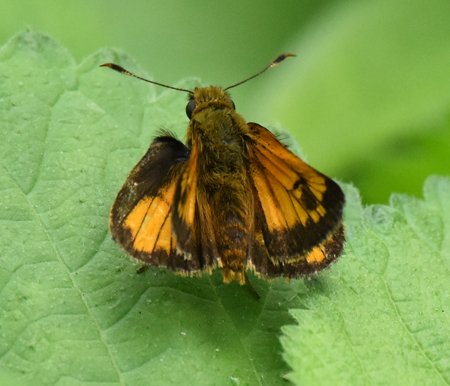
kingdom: Animalia
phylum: Arthropoda
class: Insecta
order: Lepidoptera
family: Hesperiidae
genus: Lon
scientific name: Lon hobomok
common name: Hobomok Skipper
